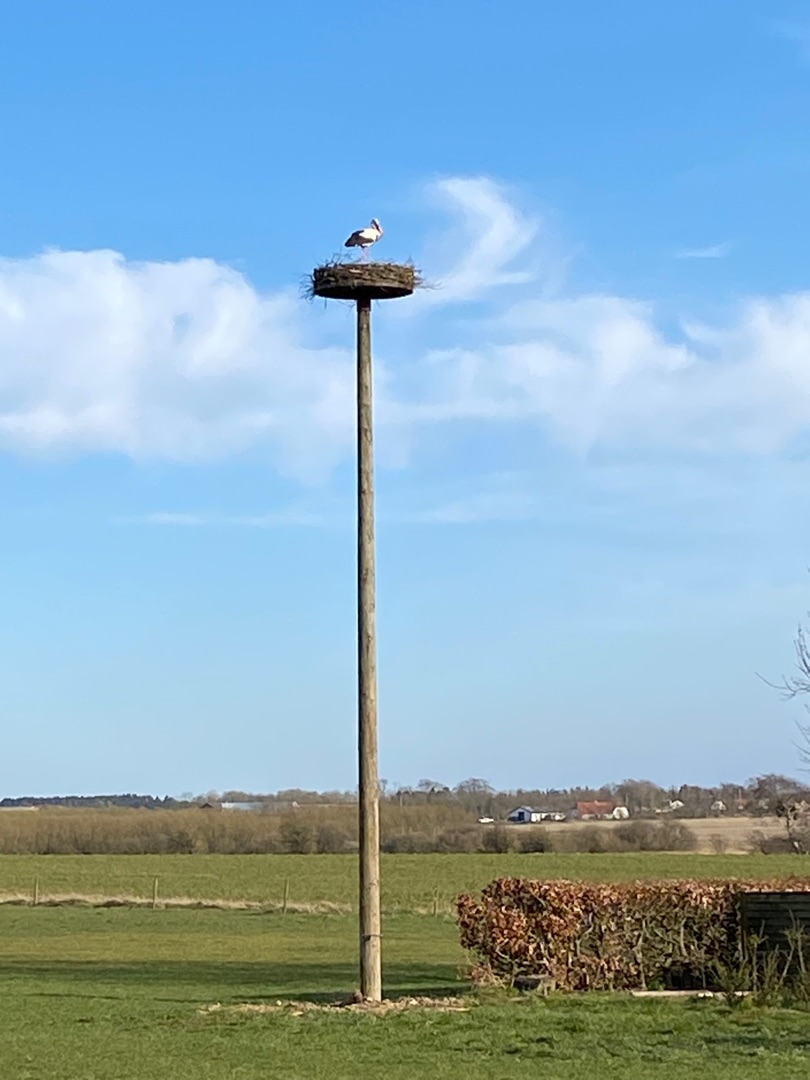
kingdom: Animalia
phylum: Chordata
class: Aves
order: Ciconiiformes
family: Ciconiidae
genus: Ciconia
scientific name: Ciconia ciconia
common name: Hvid stork
